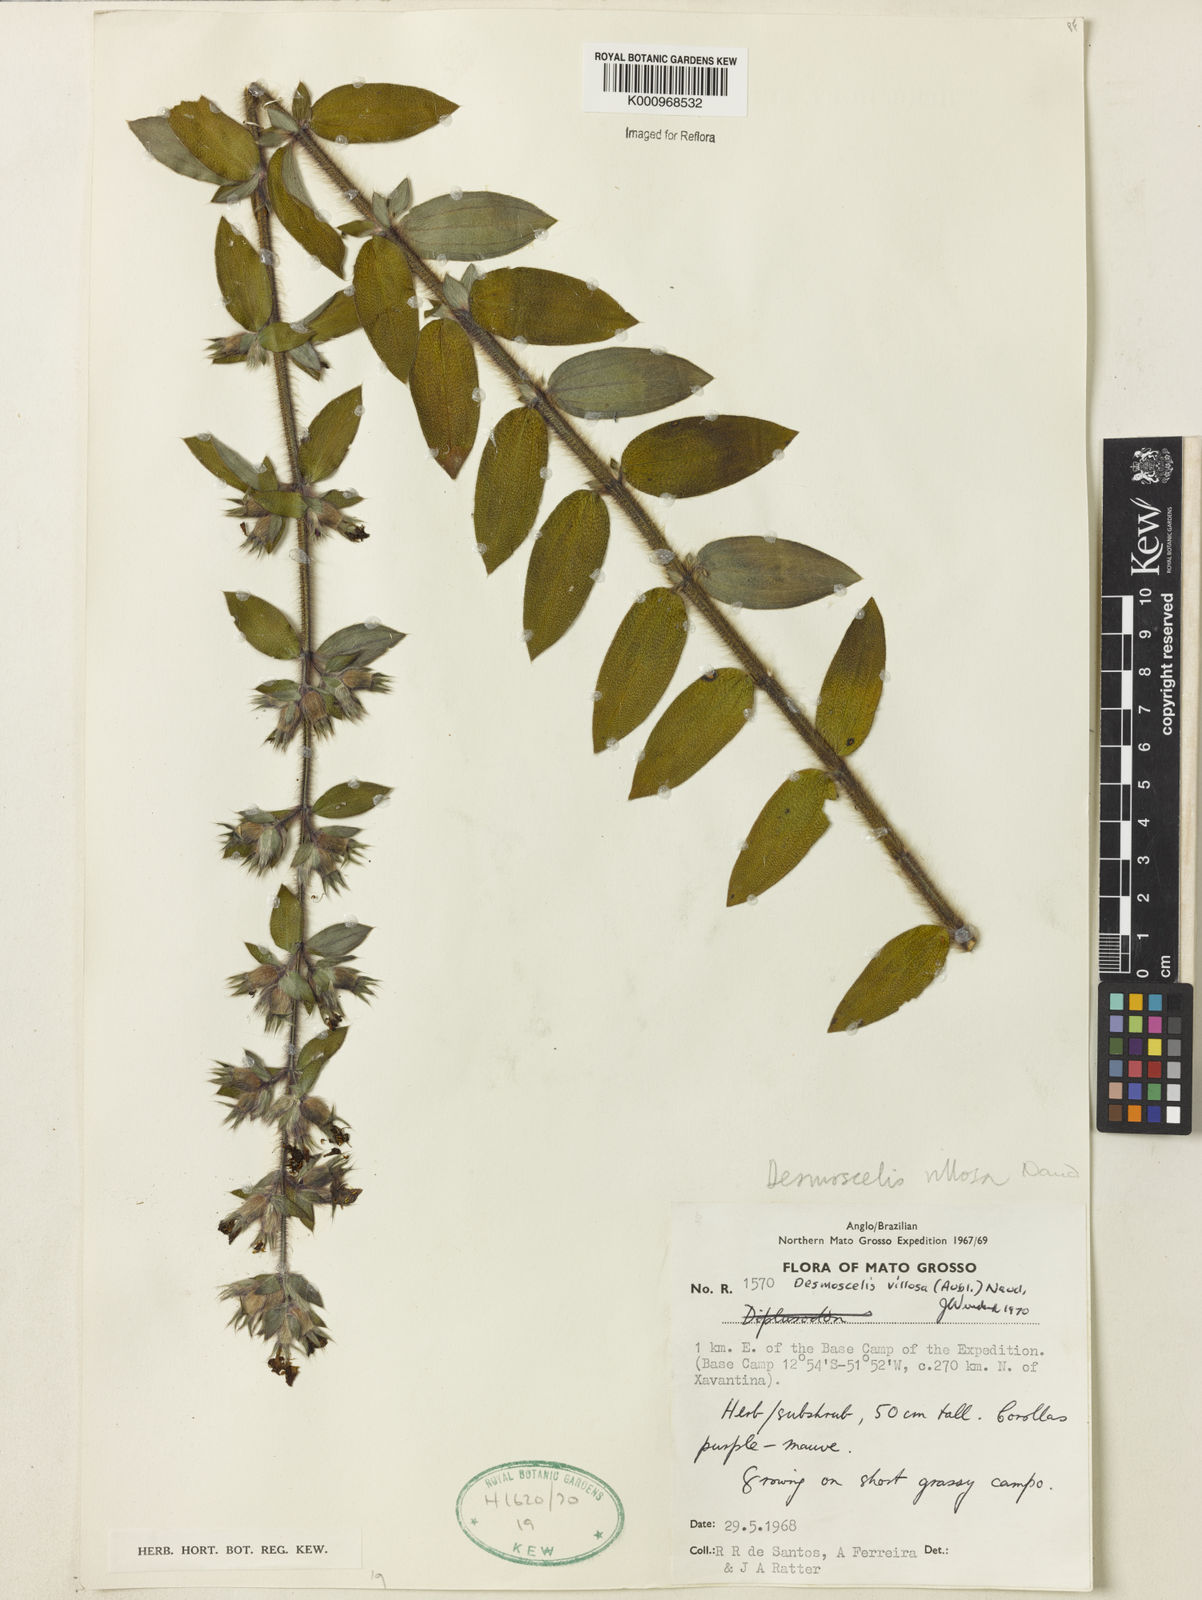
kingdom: Plantae
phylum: Tracheophyta
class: Magnoliopsida
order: Myrtales
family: Melastomataceae
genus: Desmoscelis
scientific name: Desmoscelis villosa
